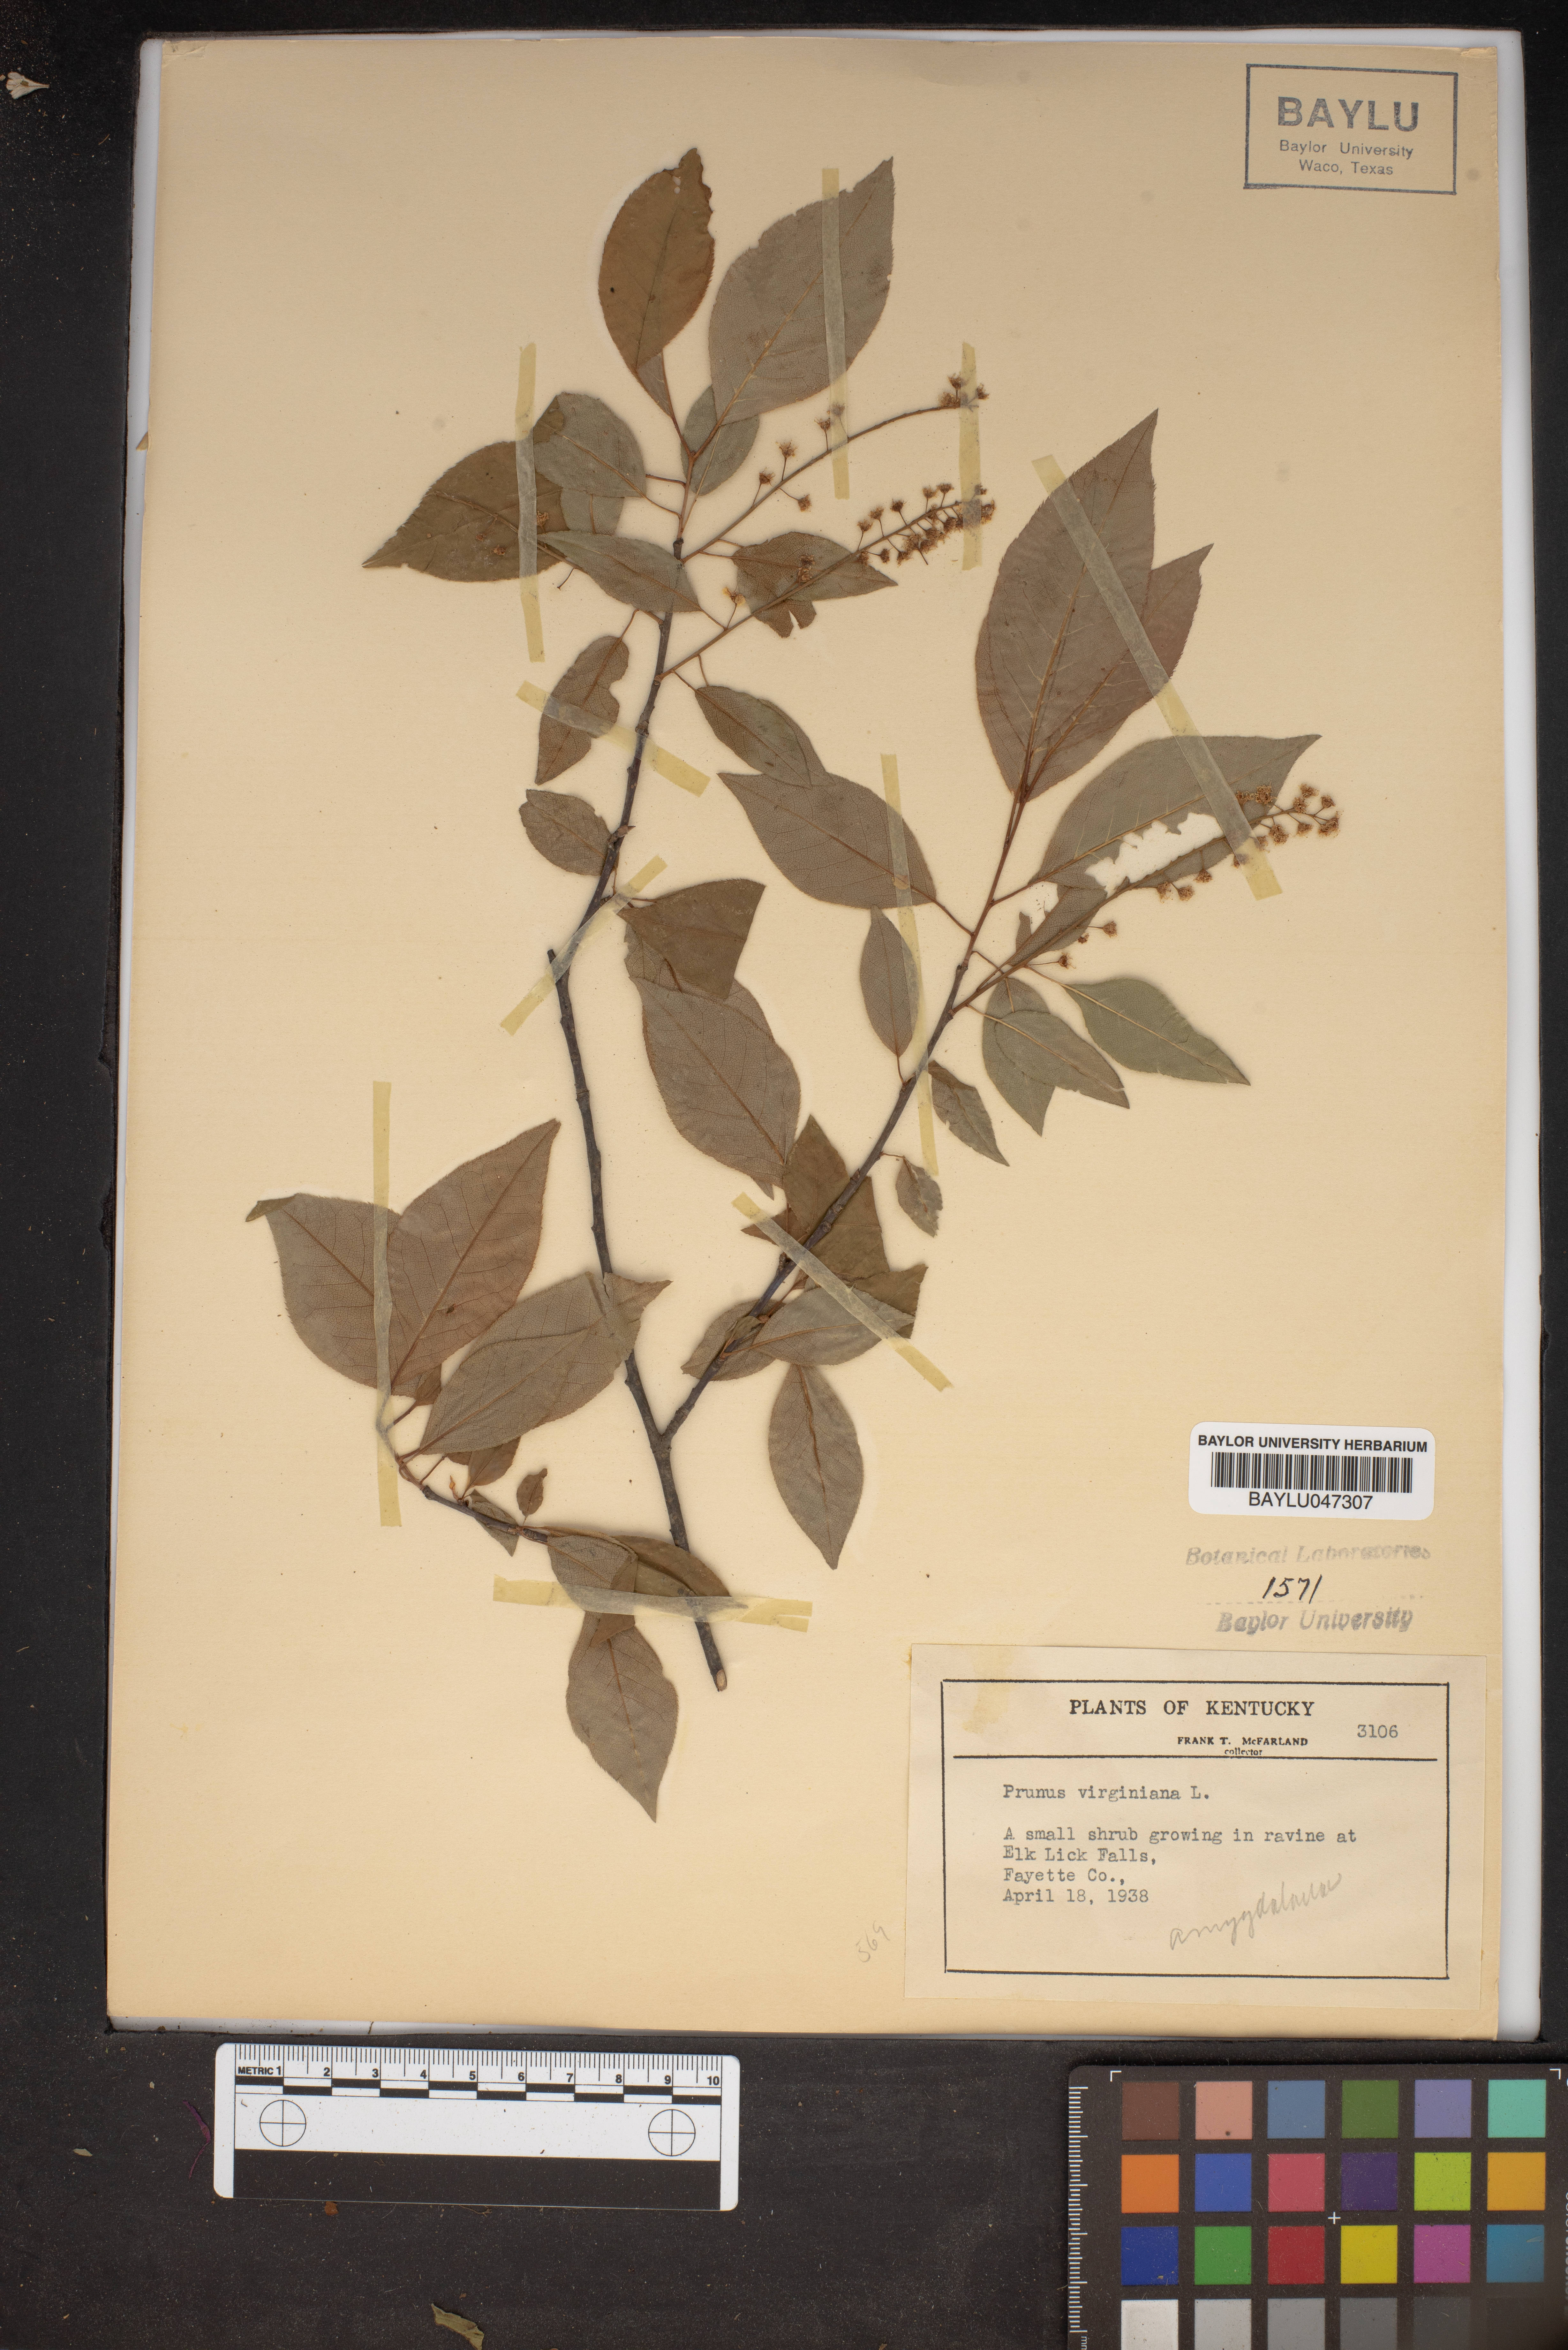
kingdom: Plantae
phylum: Tracheophyta
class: Magnoliopsida
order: Rosales
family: Rosaceae
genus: Prunus
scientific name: Prunus virginiana
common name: Chokecherry
